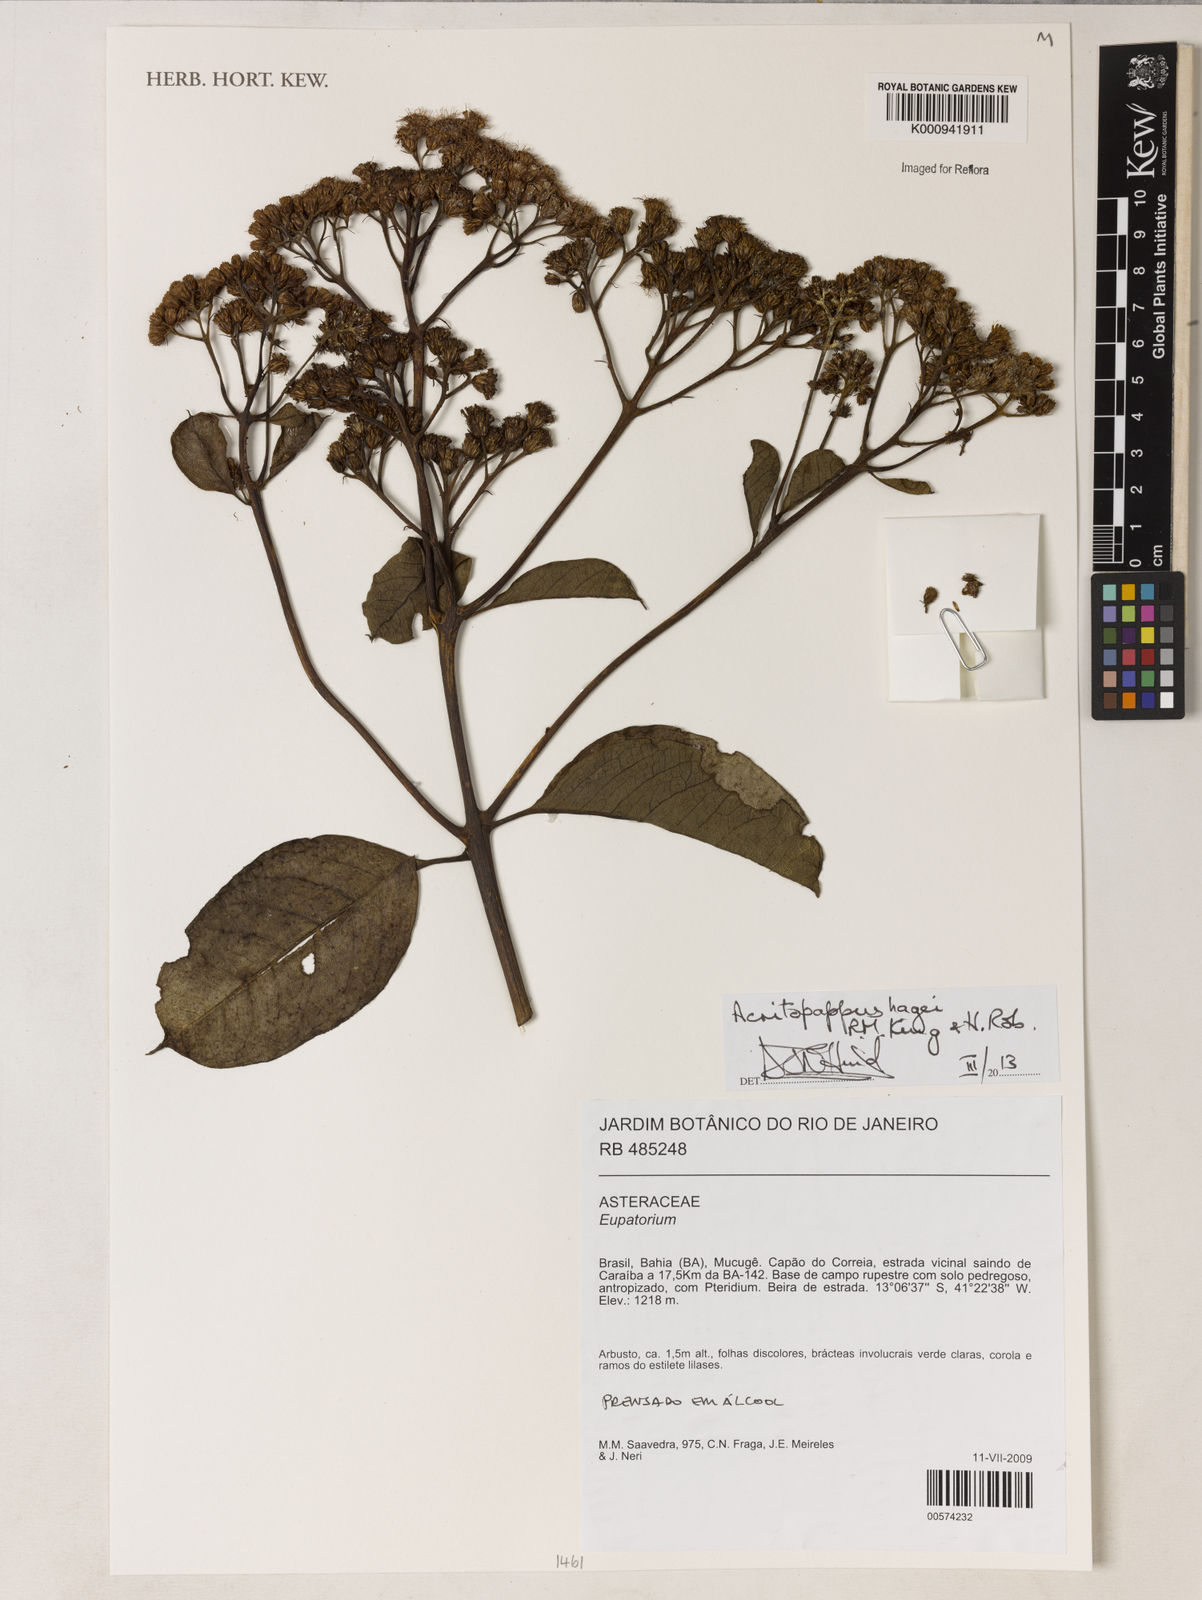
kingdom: Plantae
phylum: Tracheophyta
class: Magnoliopsida
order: Asterales
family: Asteraceae
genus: Acritopappus
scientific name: Acritopappus heterolepis
